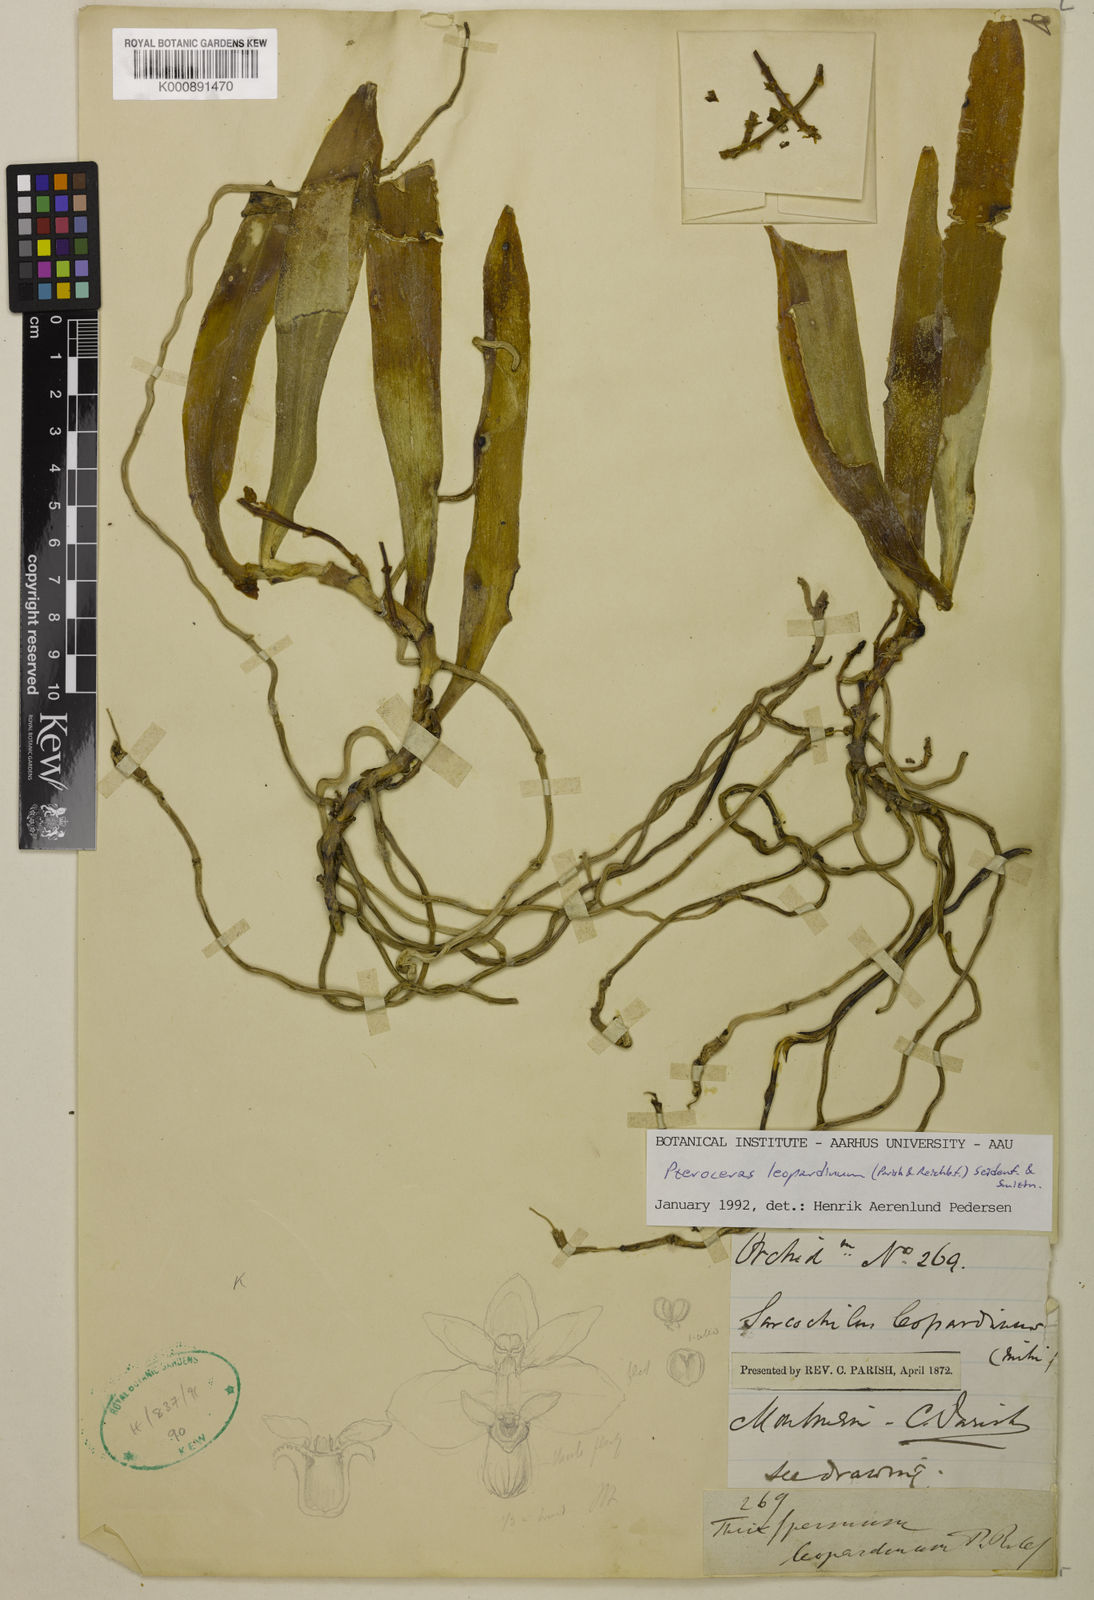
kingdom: Plantae
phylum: Tracheophyta
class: Liliopsida
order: Asparagales
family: Orchidaceae
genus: Pteroceras
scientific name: Pteroceras leopardinum
